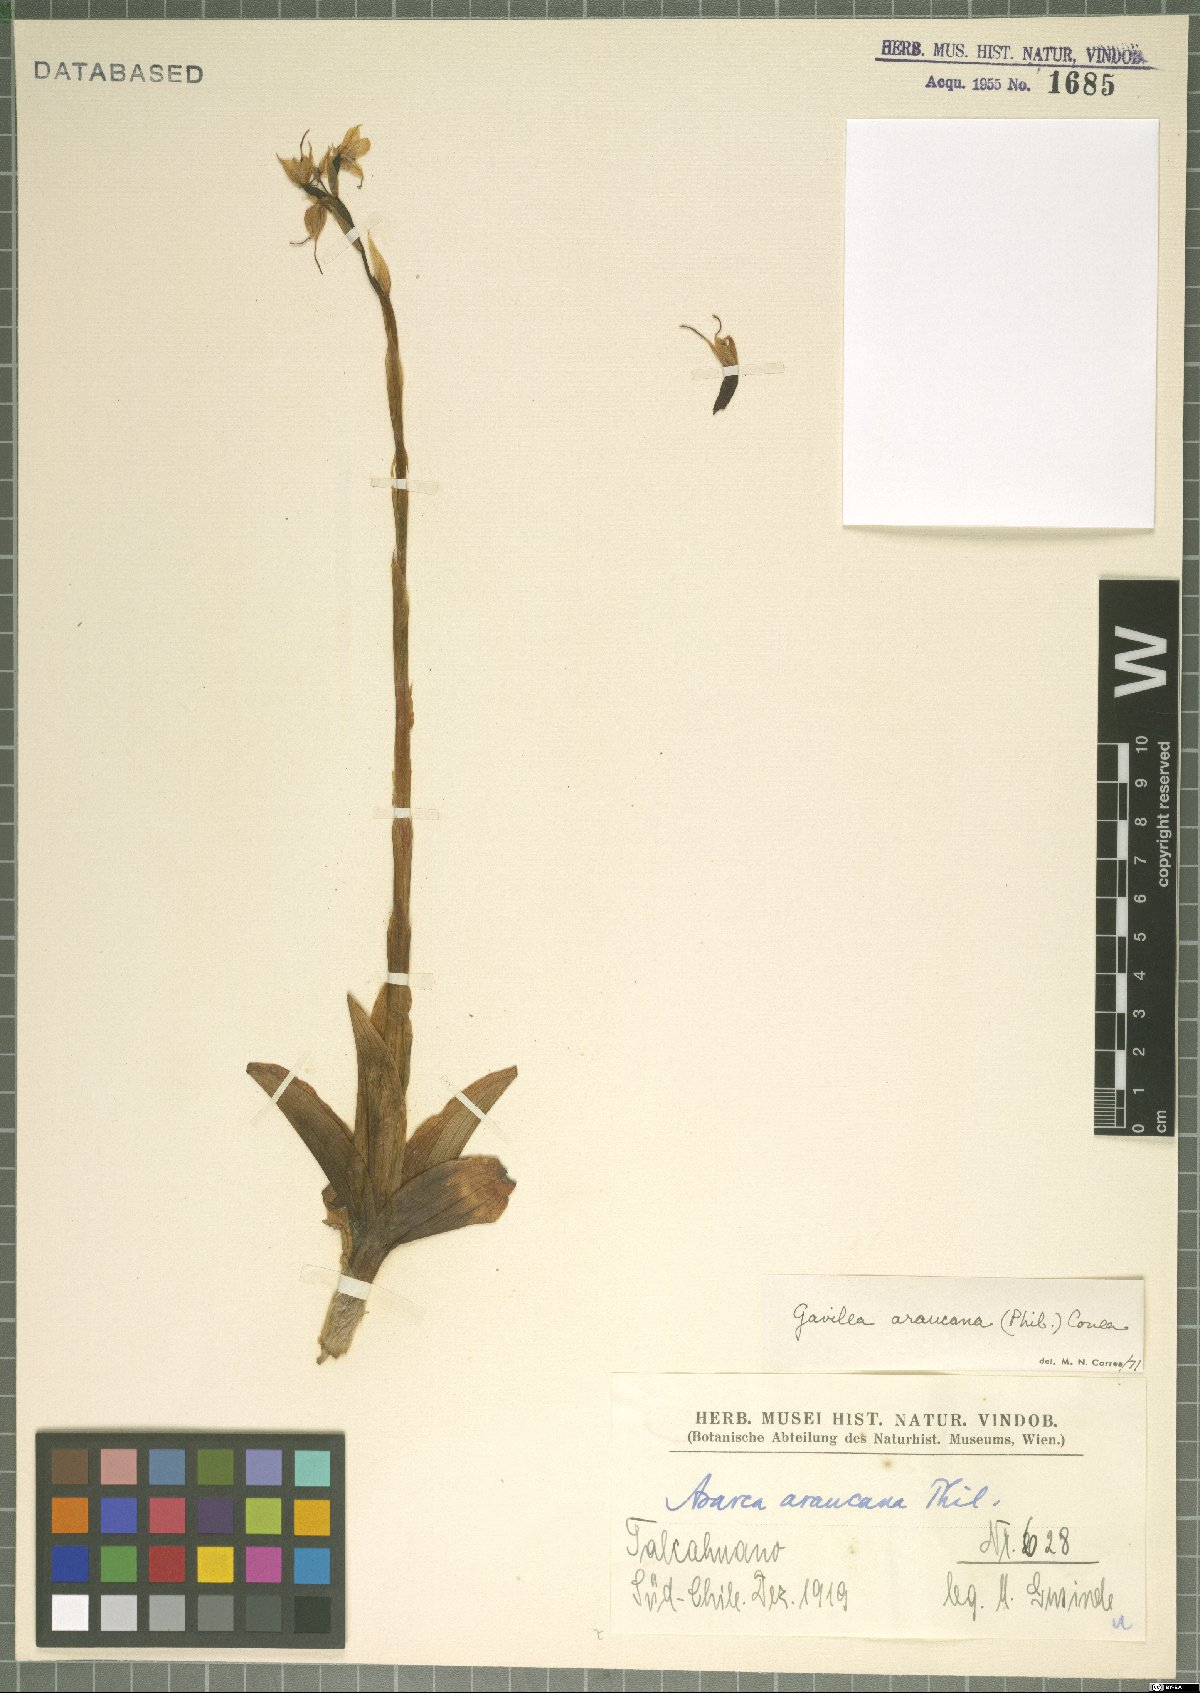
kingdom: Plantae
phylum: Tracheophyta
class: Liliopsida
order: Asparagales
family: Orchidaceae
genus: Gavilea
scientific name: Gavilea araucana
